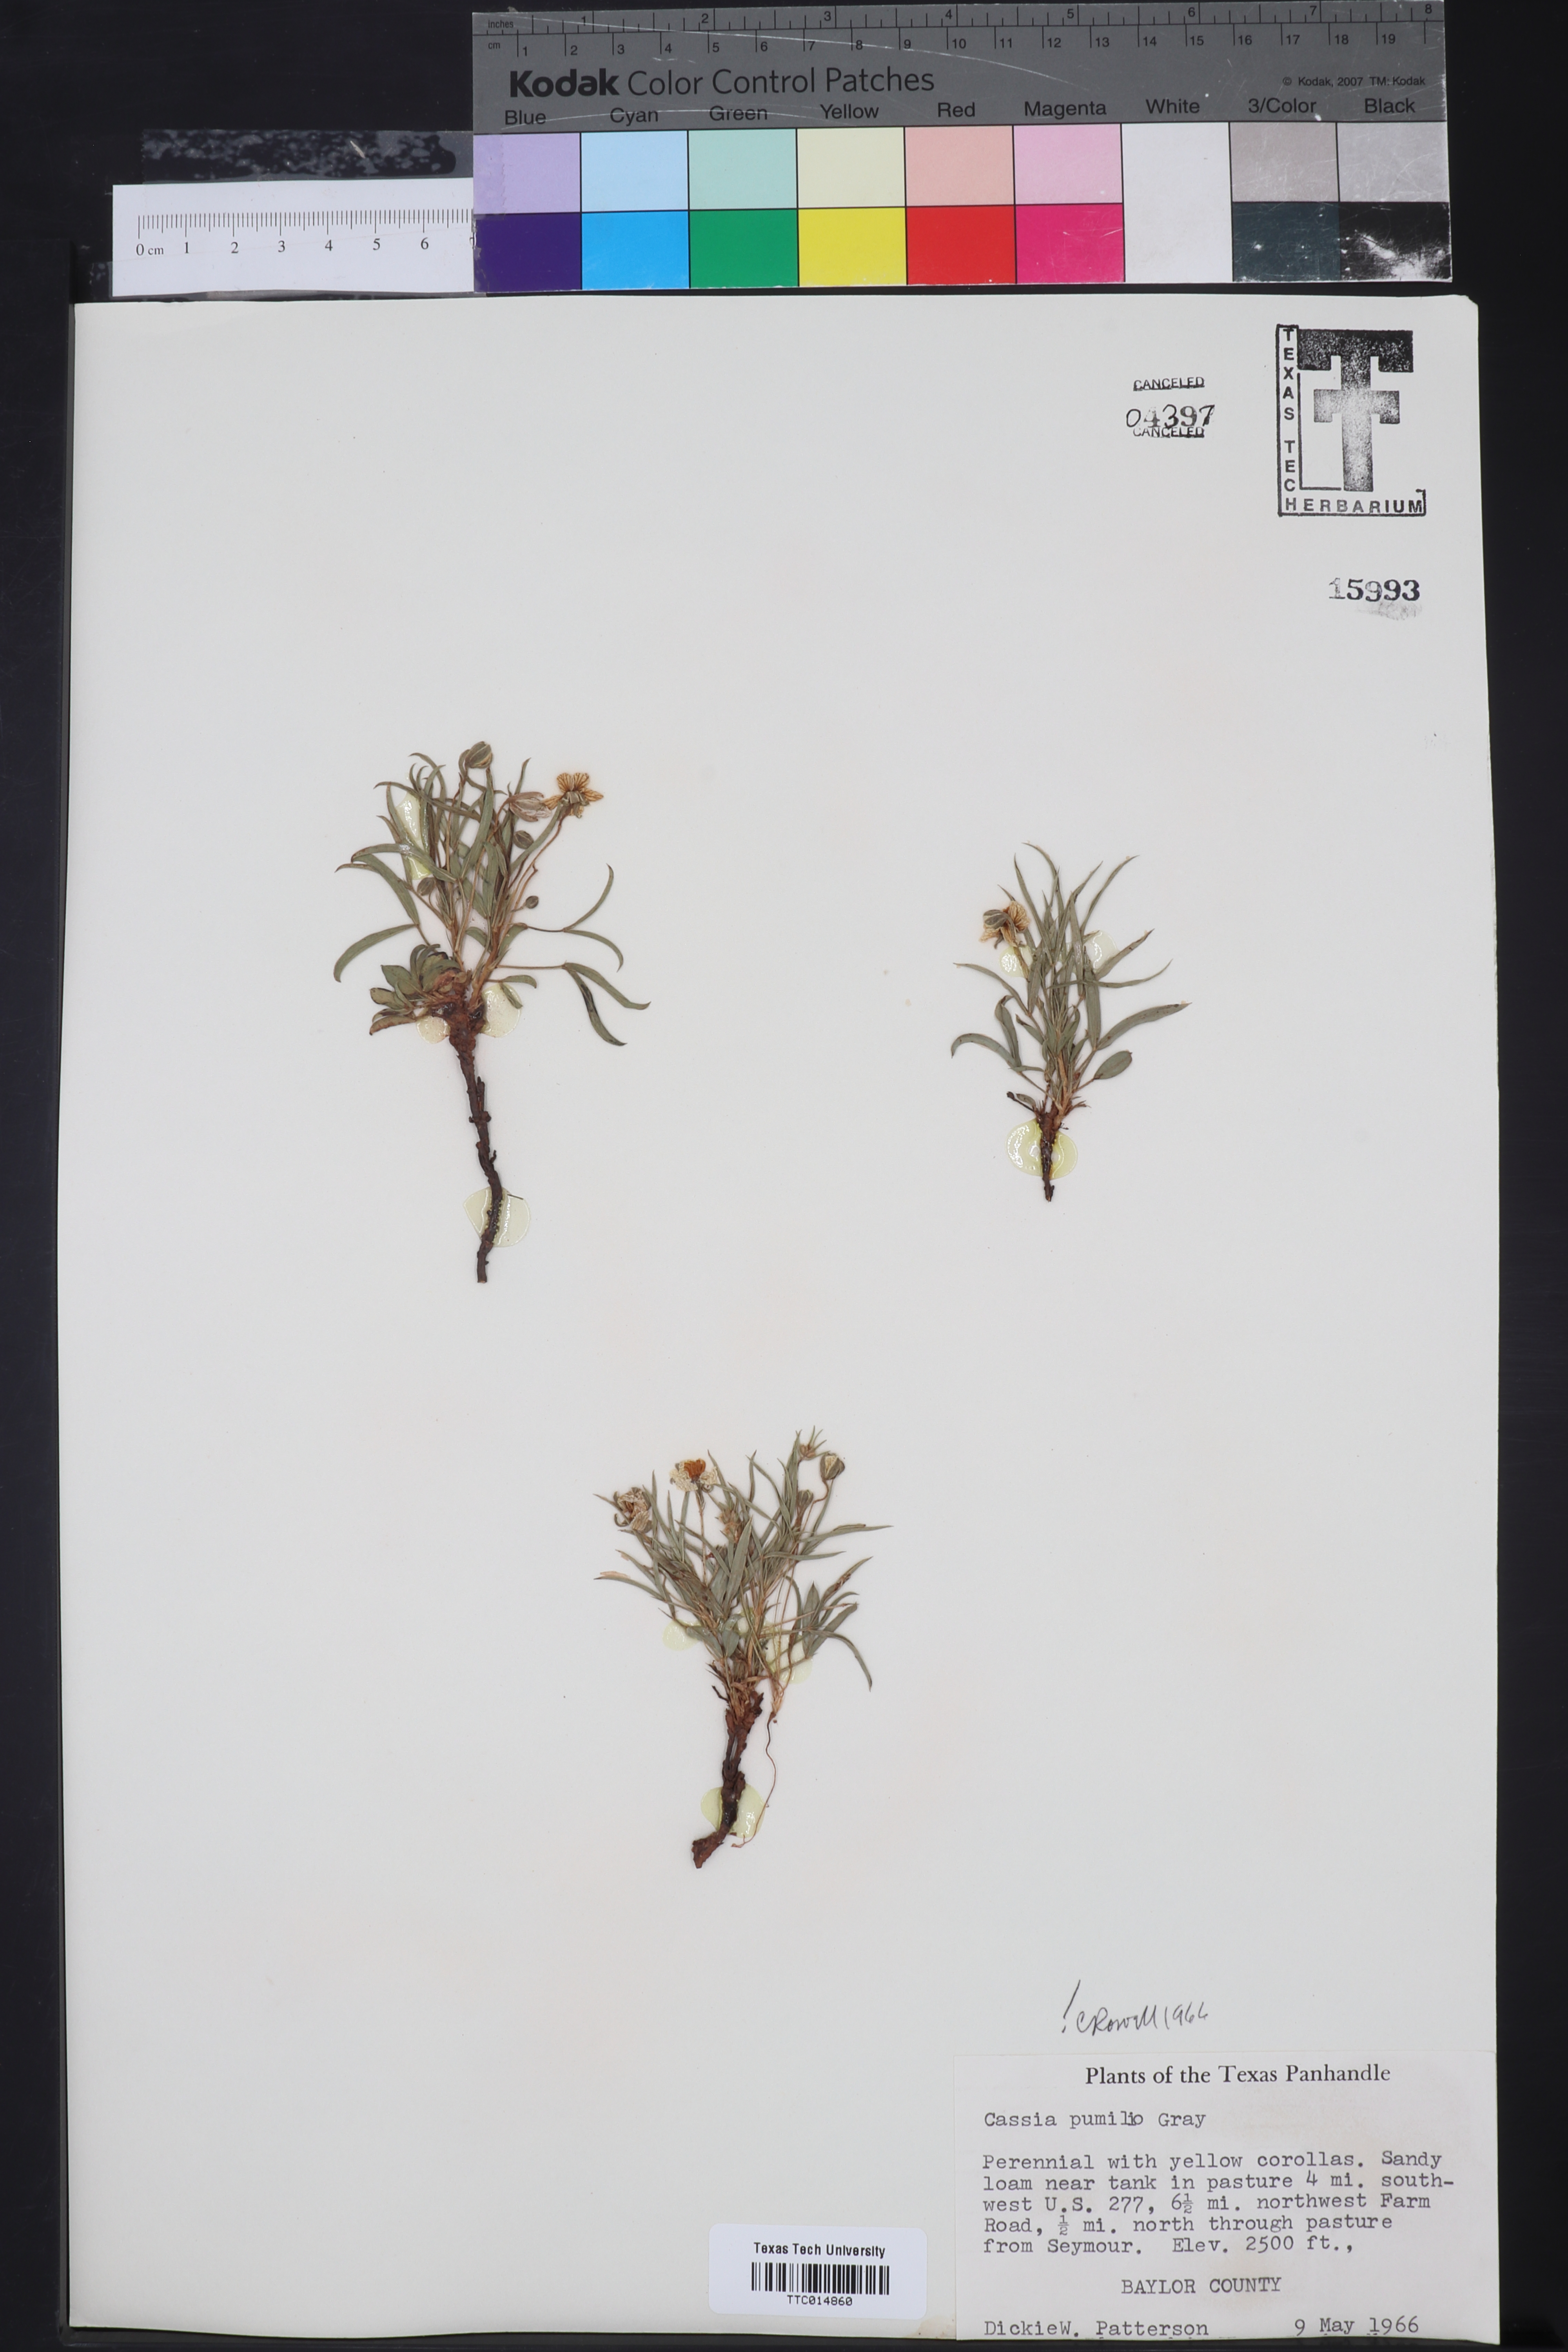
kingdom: Plantae
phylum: Tracheophyta
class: Magnoliopsida
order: Fabales
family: Fabaceae
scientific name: Fabaceae
